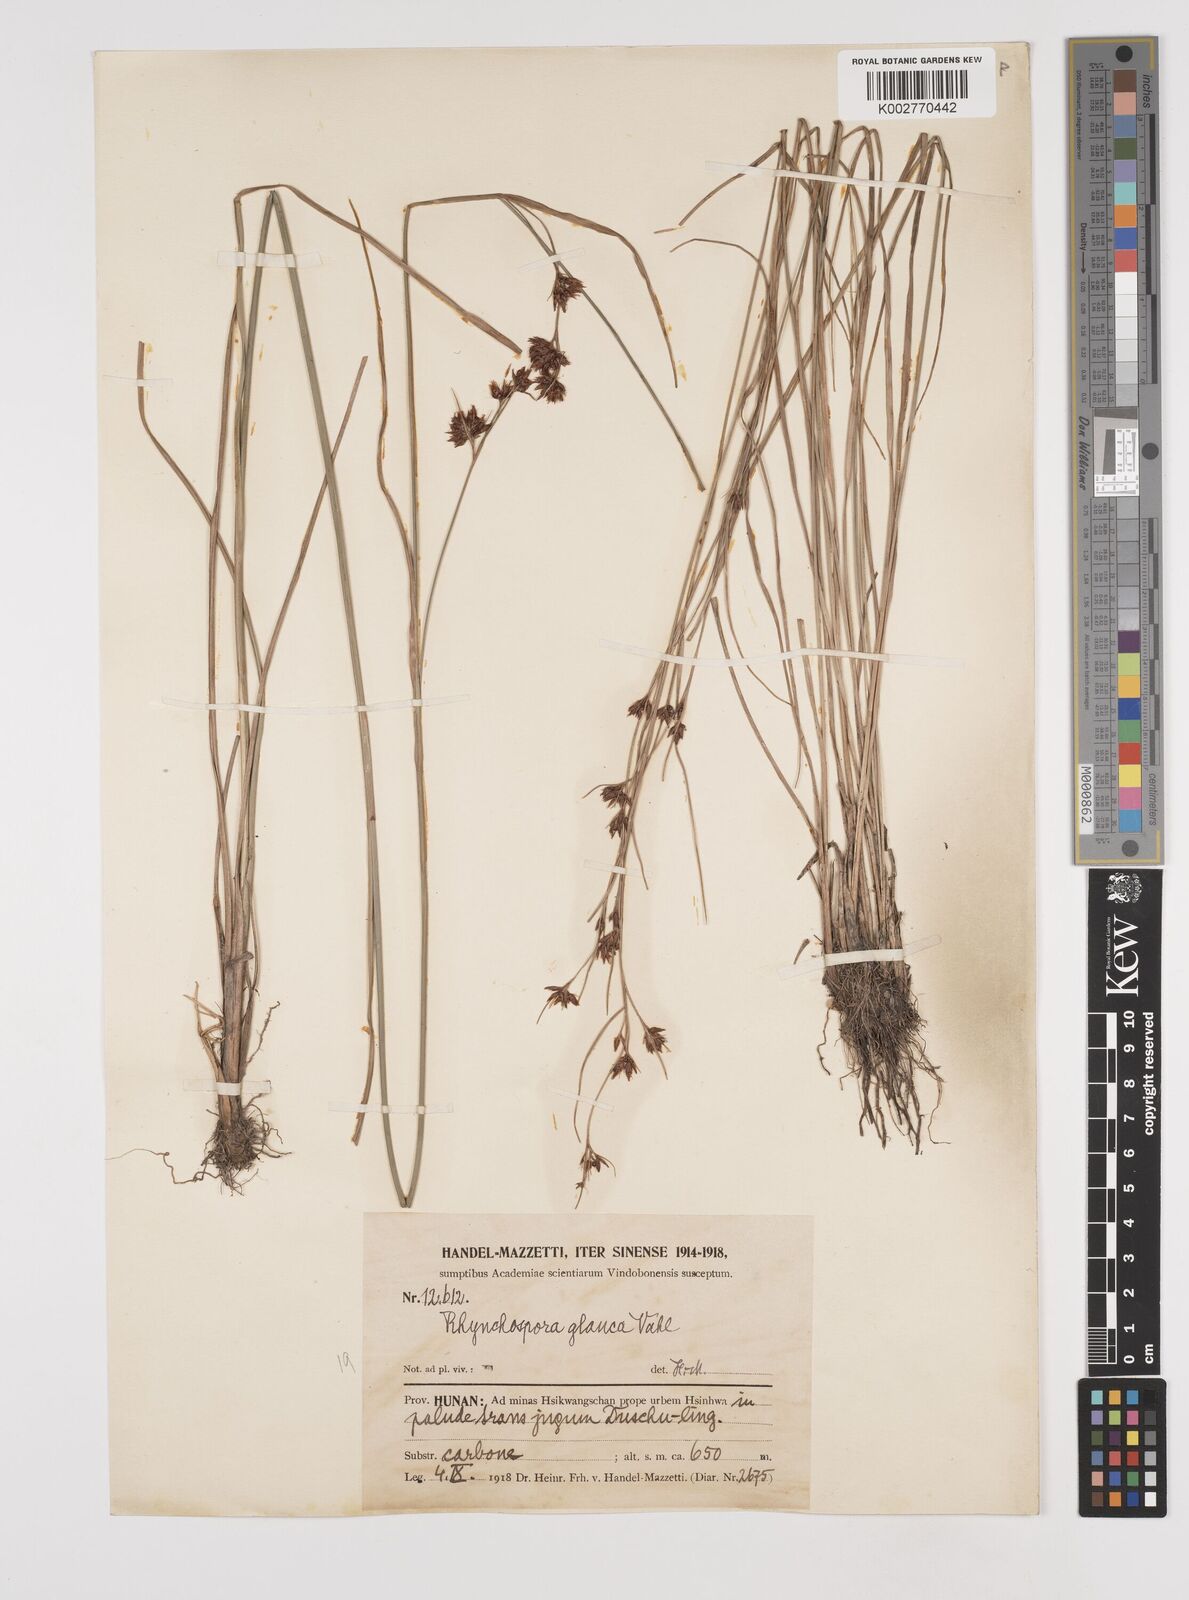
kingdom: Plantae
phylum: Tracheophyta
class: Liliopsida
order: Poales
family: Cyperaceae
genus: Rhynchospora
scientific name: Rhynchospora
